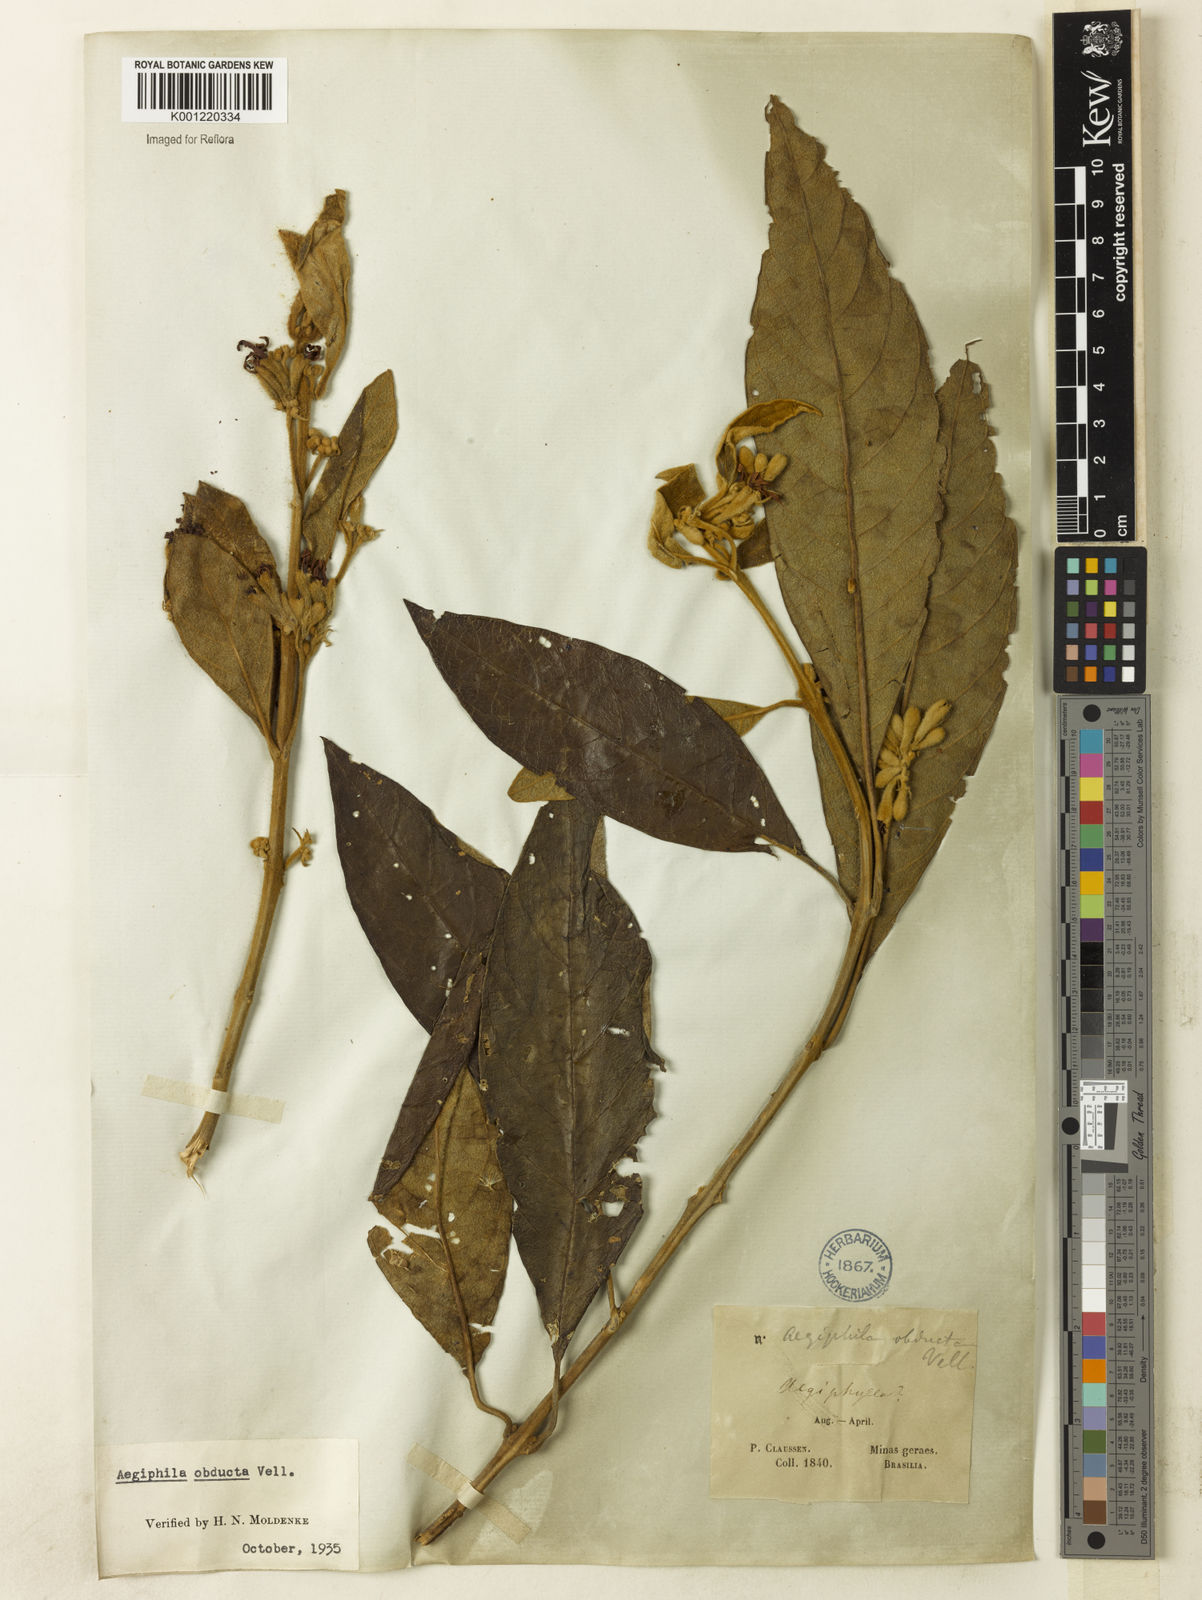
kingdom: Plantae
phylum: Tracheophyta
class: Magnoliopsida
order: Lamiales
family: Lamiaceae
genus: Aegiphila
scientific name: Aegiphila obducta
